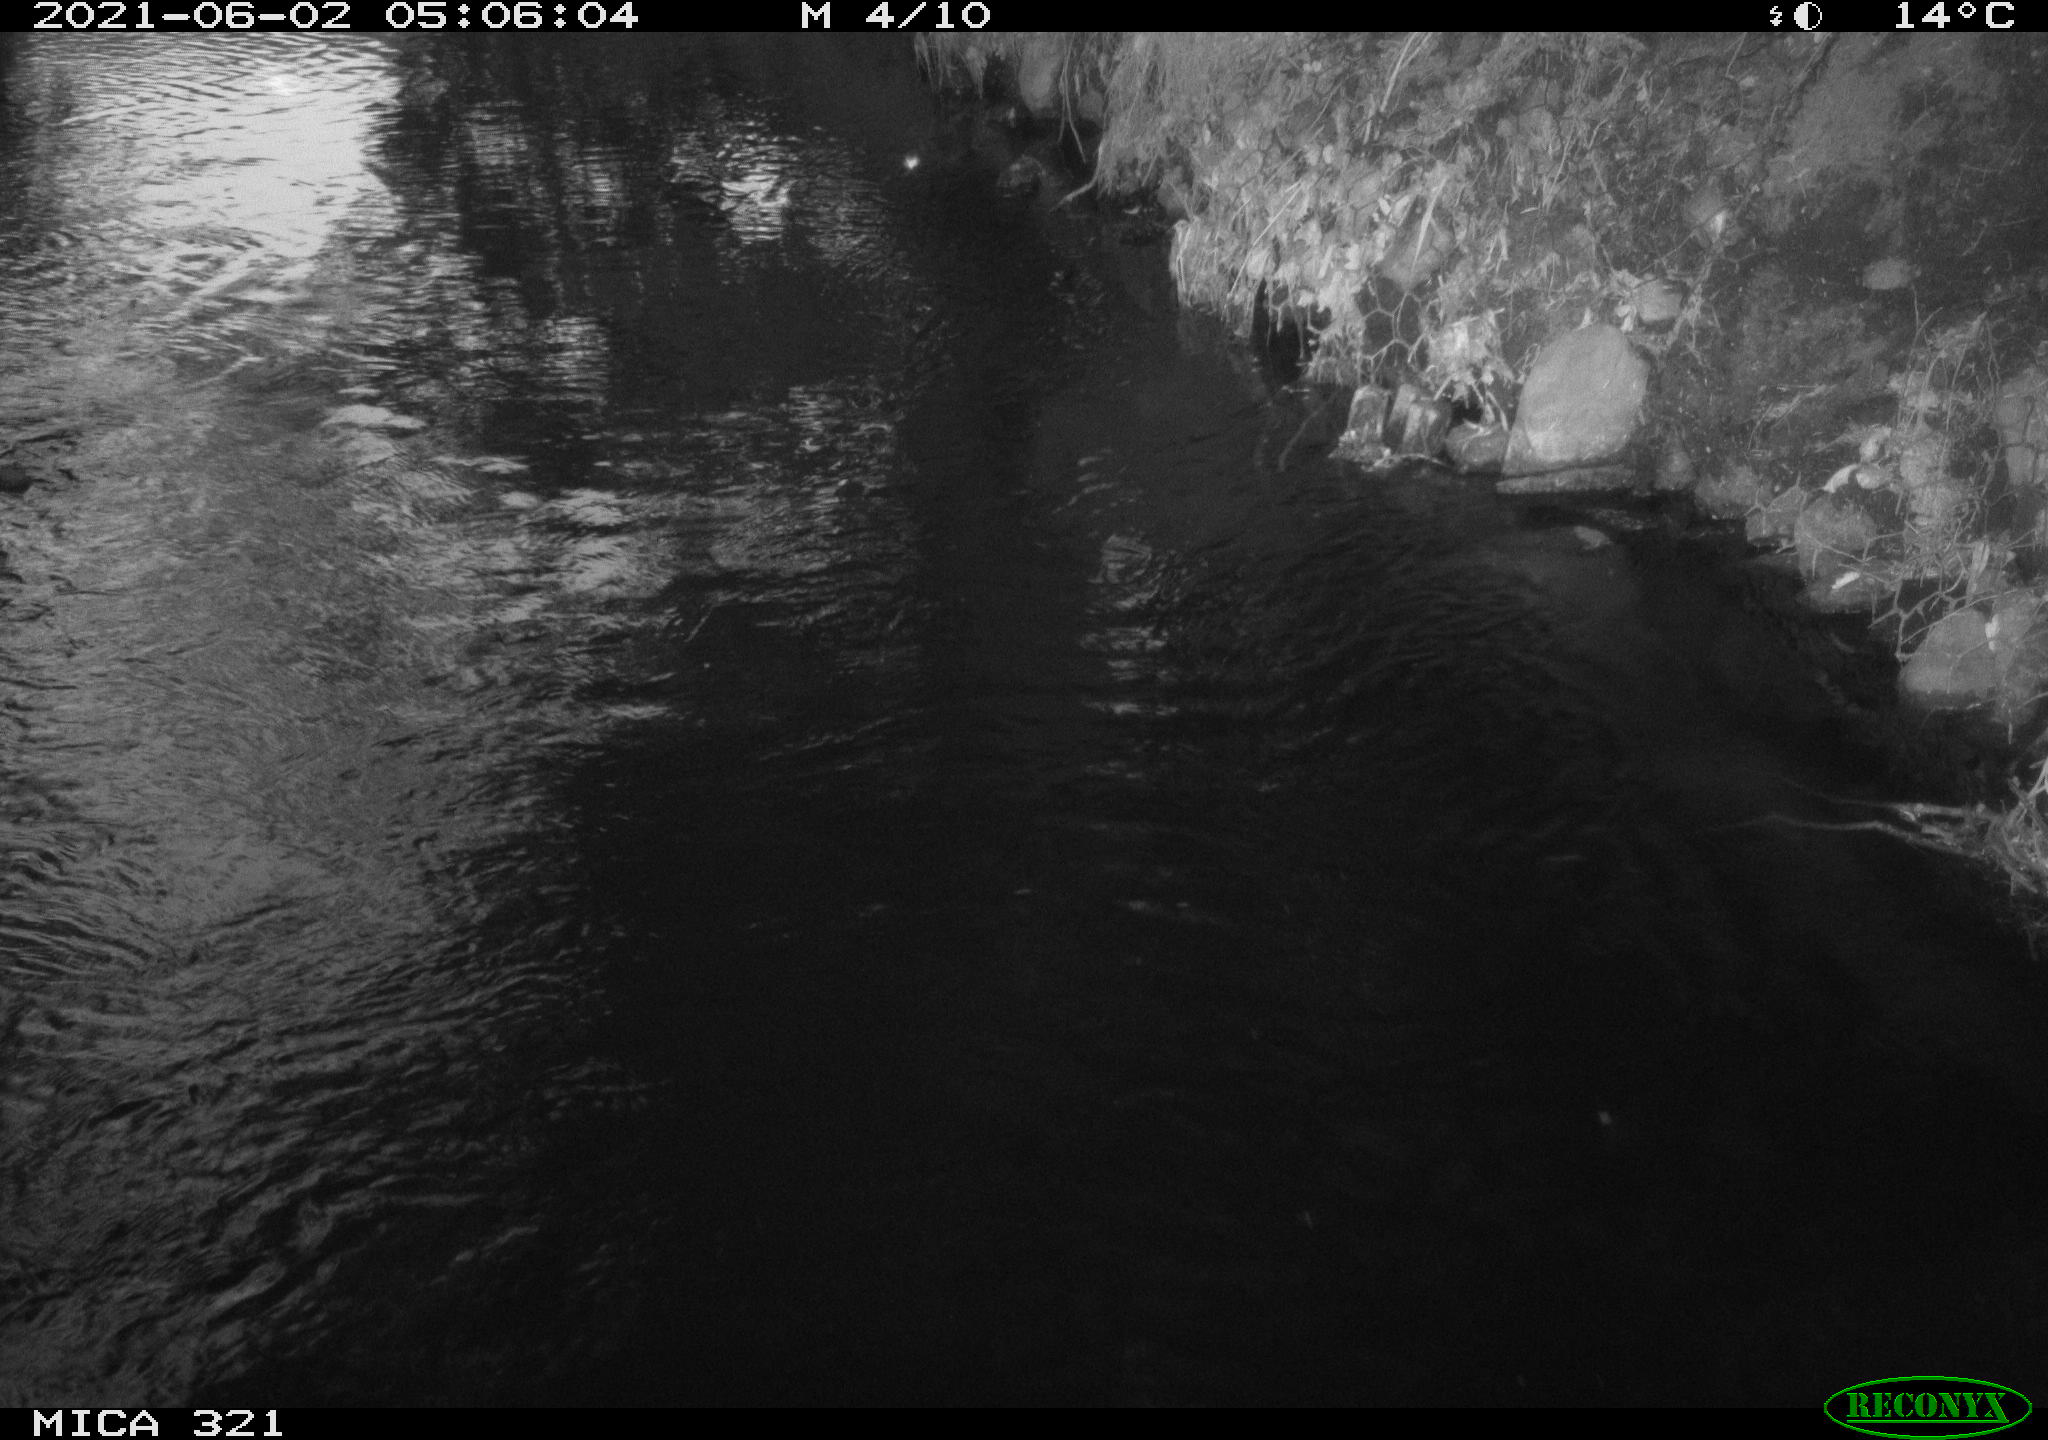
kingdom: Animalia
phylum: Chordata
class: Aves
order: Anseriformes
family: Anatidae
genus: Anas
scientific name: Anas platyrhynchos
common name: Mallard
